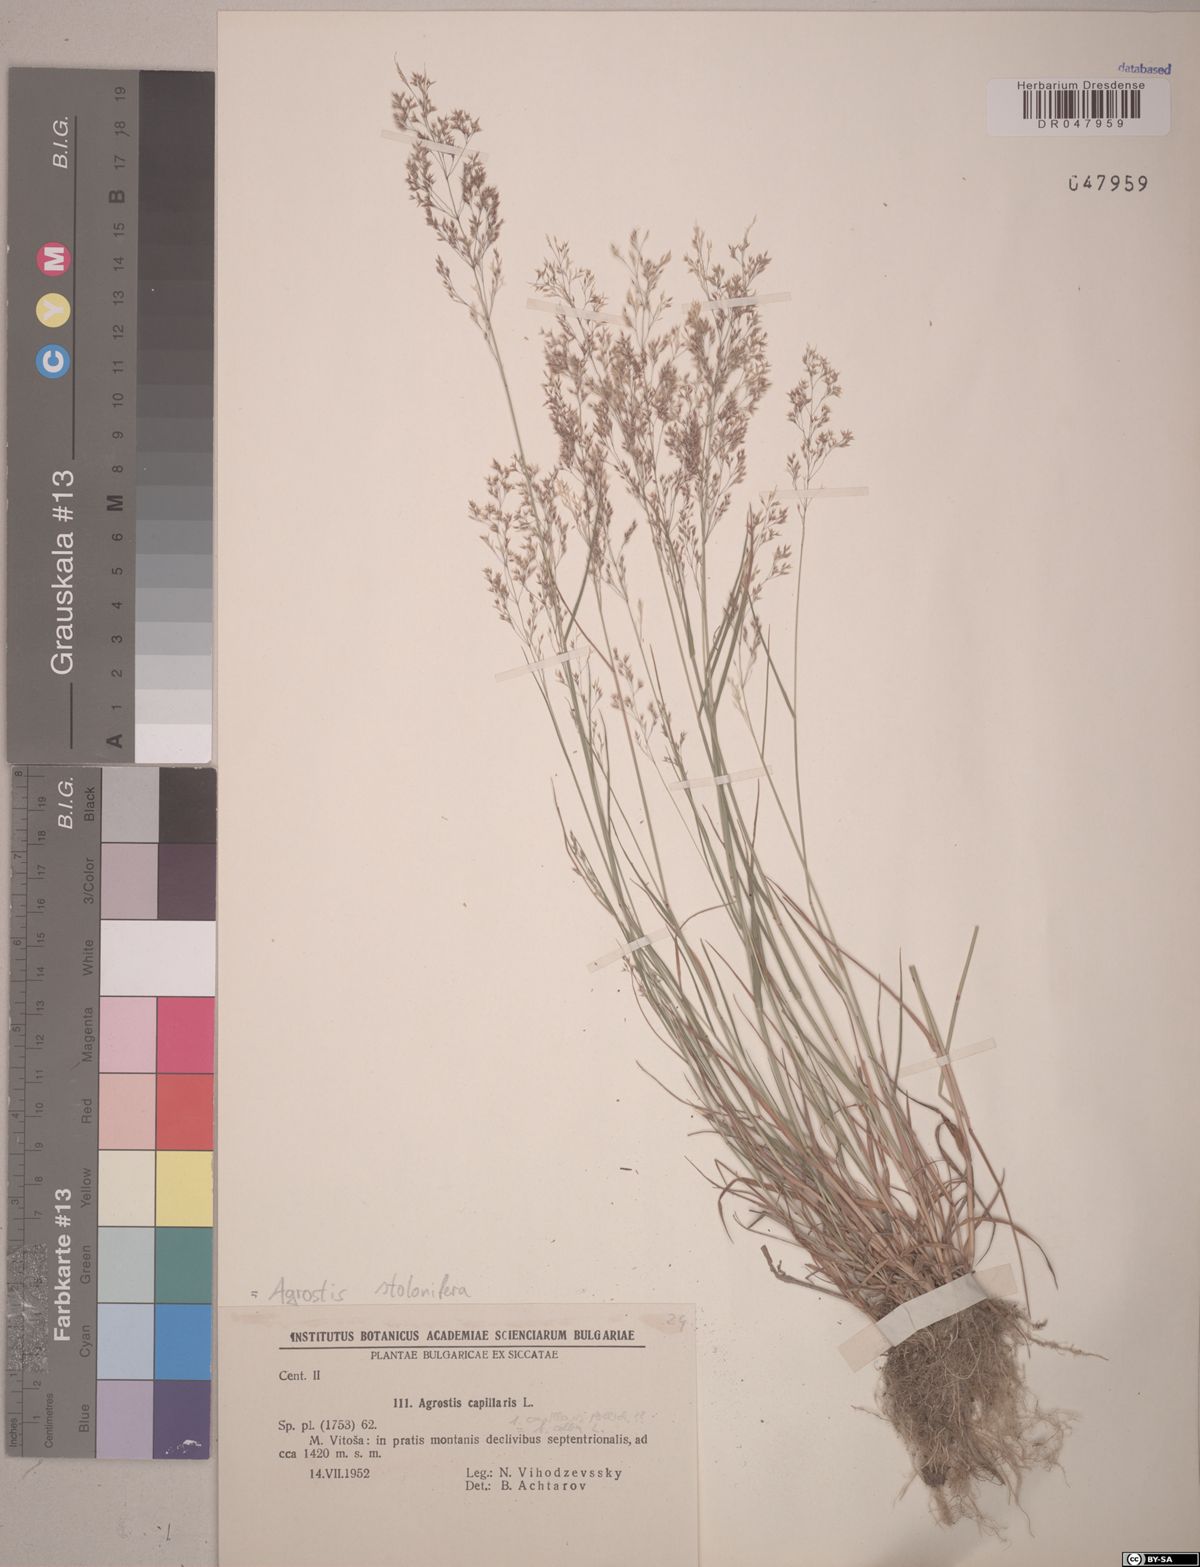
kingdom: Plantae
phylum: Tracheophyta
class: Liliopsida
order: Poales
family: Poaceae
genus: Agrostis
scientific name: Agrostis stolonifera
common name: Creeping bentgrass
